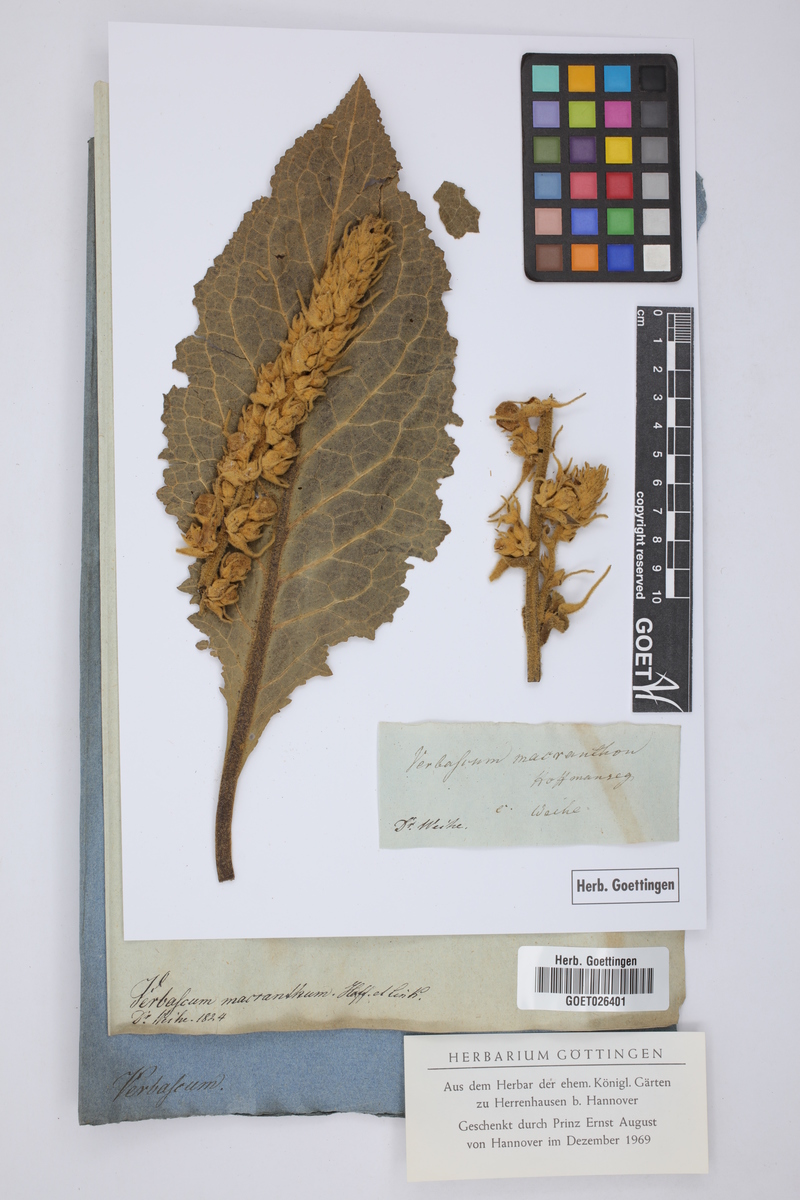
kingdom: Plantae
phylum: Tracheophyta
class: Magnoliopsida
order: Lamiales
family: Scrophulariaceae
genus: Verbascum
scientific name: Verbascum phlomoides
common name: Orange mullein
